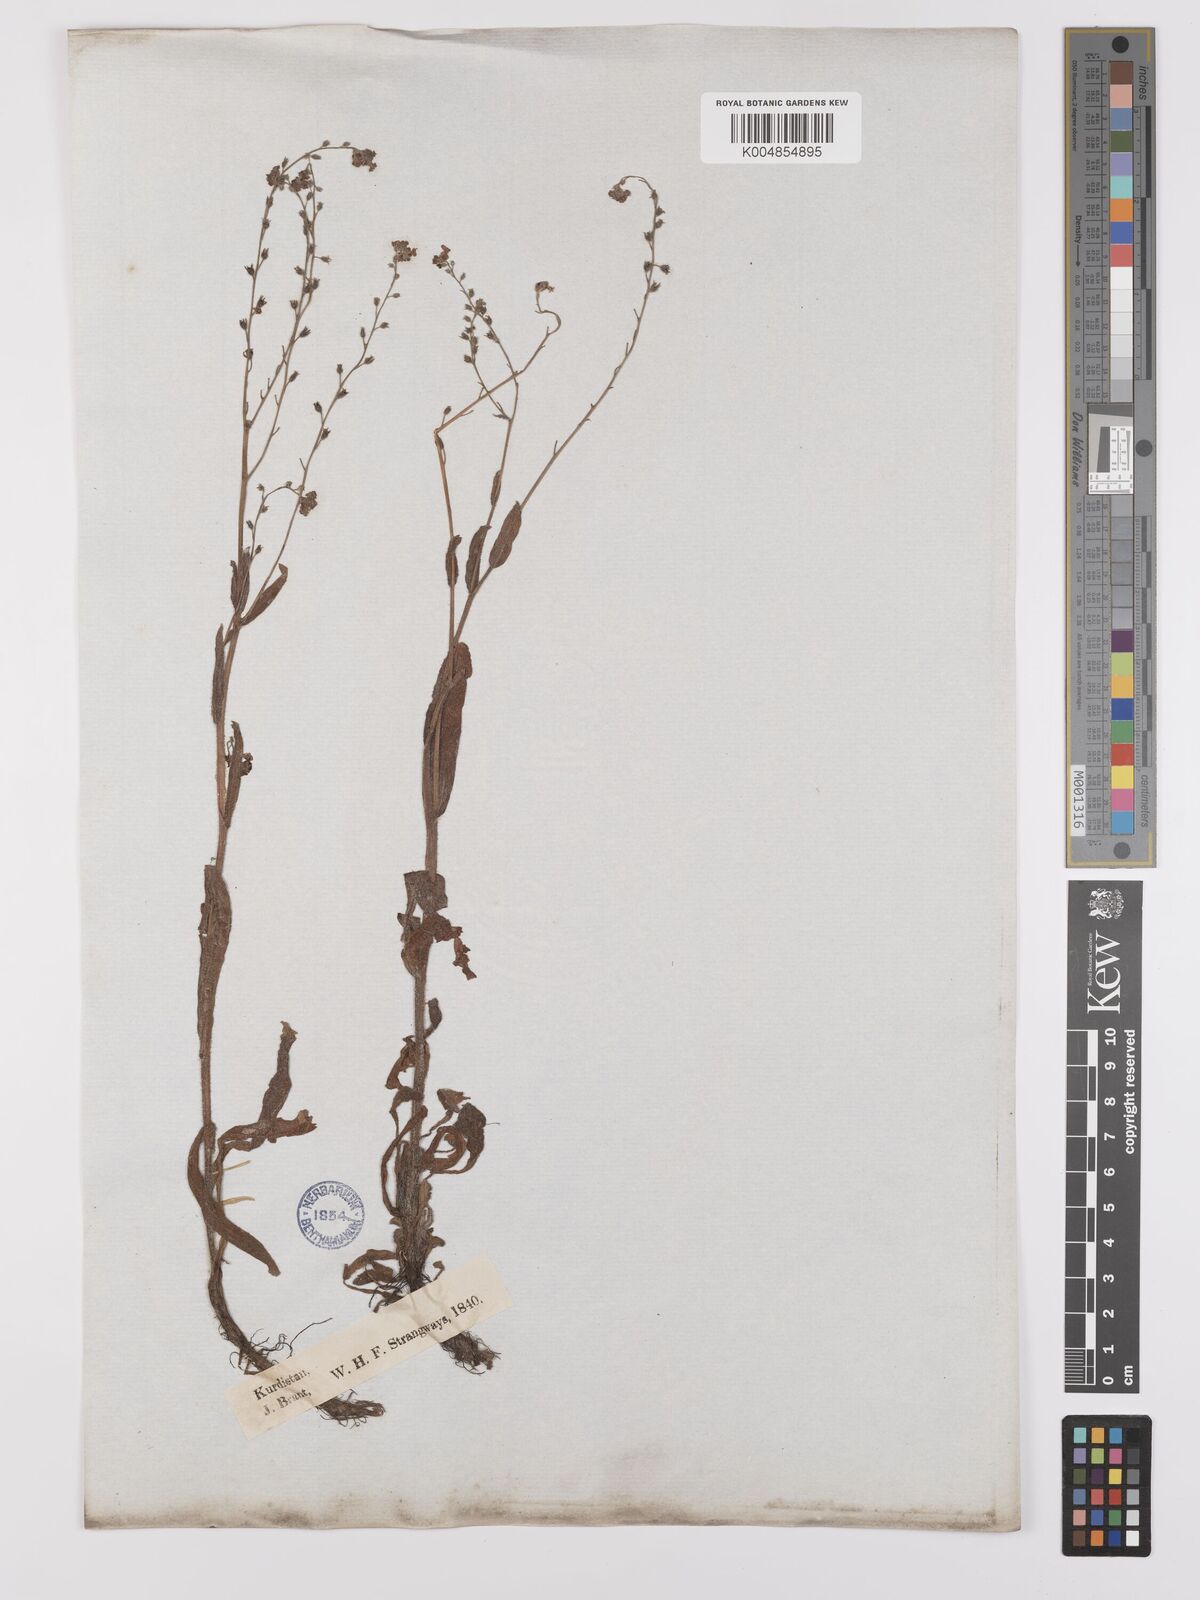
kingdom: Plantae
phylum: Tracheophyta
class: Magnoliopsida
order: Boraginales
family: Boraginaceae
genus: Myosotis
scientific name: Myosotis
